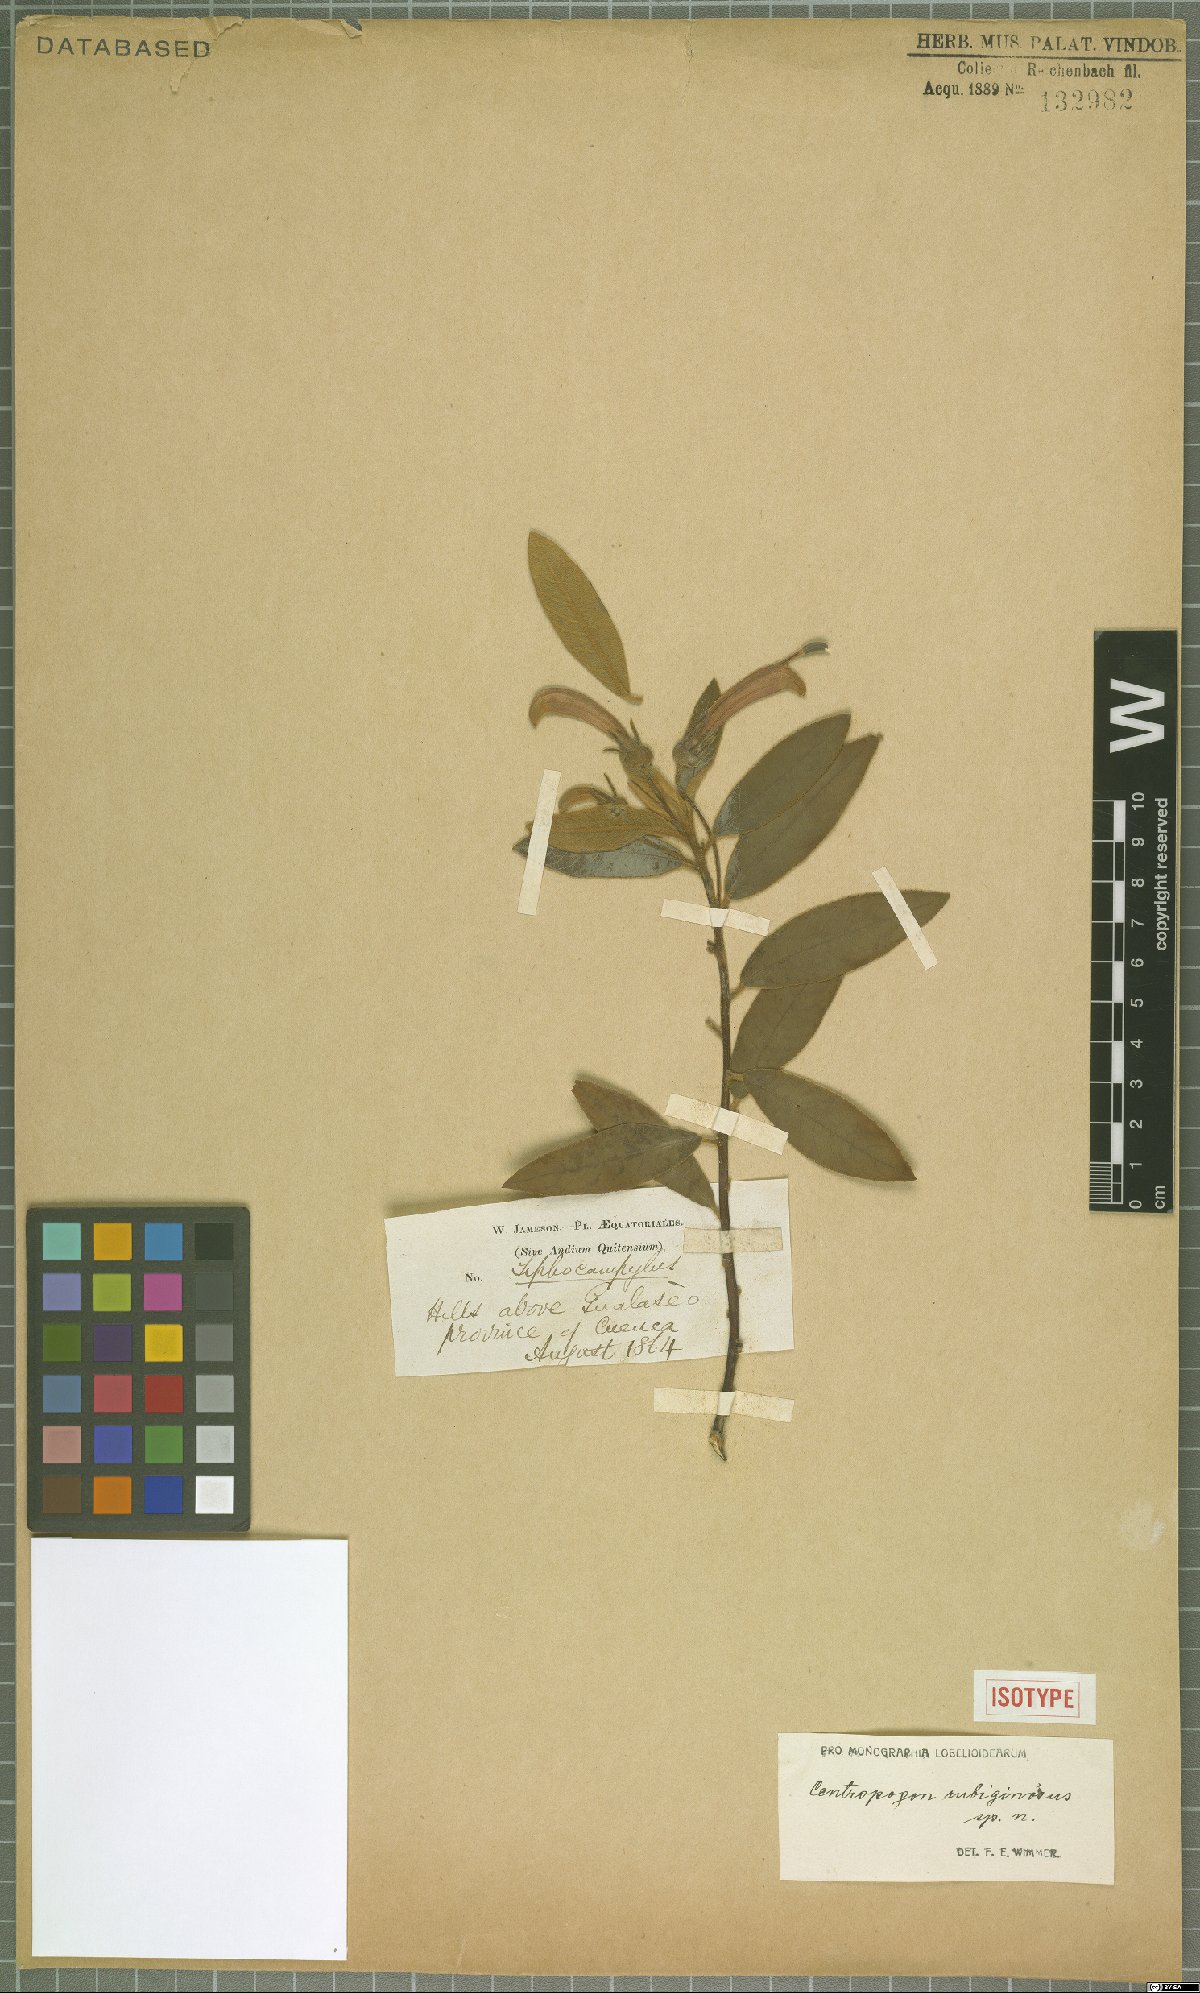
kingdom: Plantae
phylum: Tracheophyta
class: Magnoliopsida
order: Asterales
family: Campanulaceae
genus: Centropogon
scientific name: Centropogon rubiginosus
